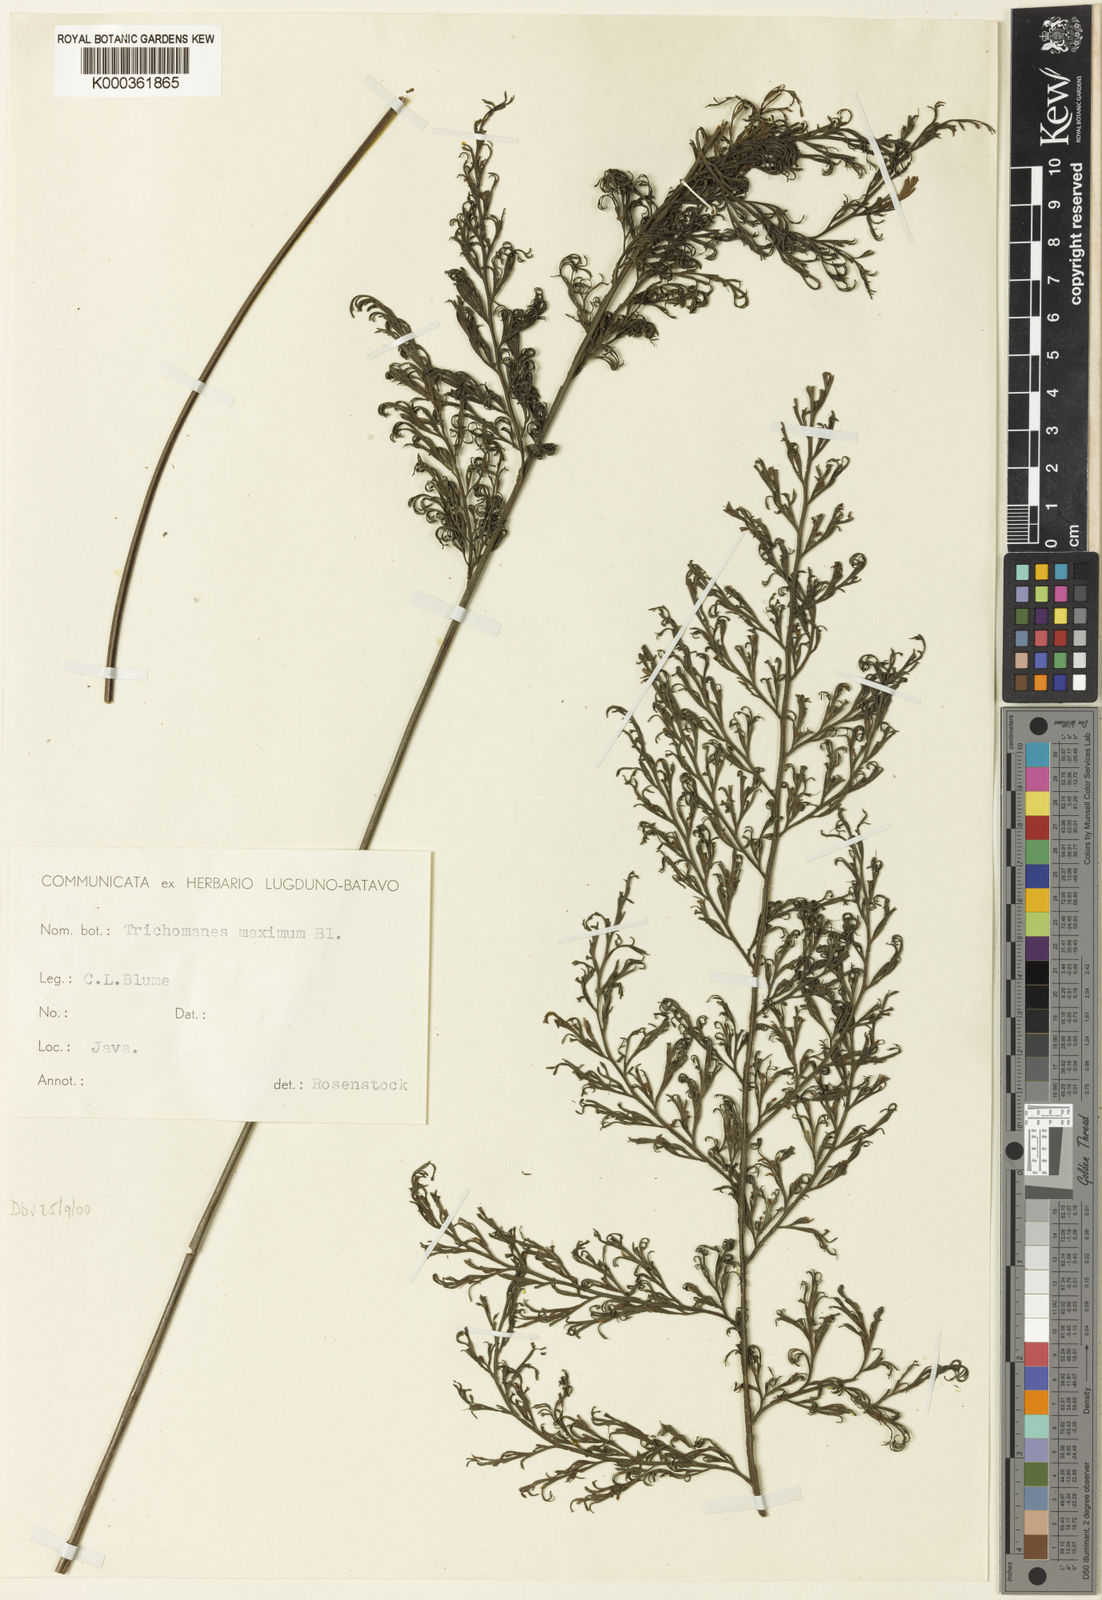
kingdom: Plantae
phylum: Tracheophyta
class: Polypodiopsida
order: Hymenophyllales
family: Hymenophyllaceae
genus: Vandenboschia
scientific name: Vandenboschia maxima
